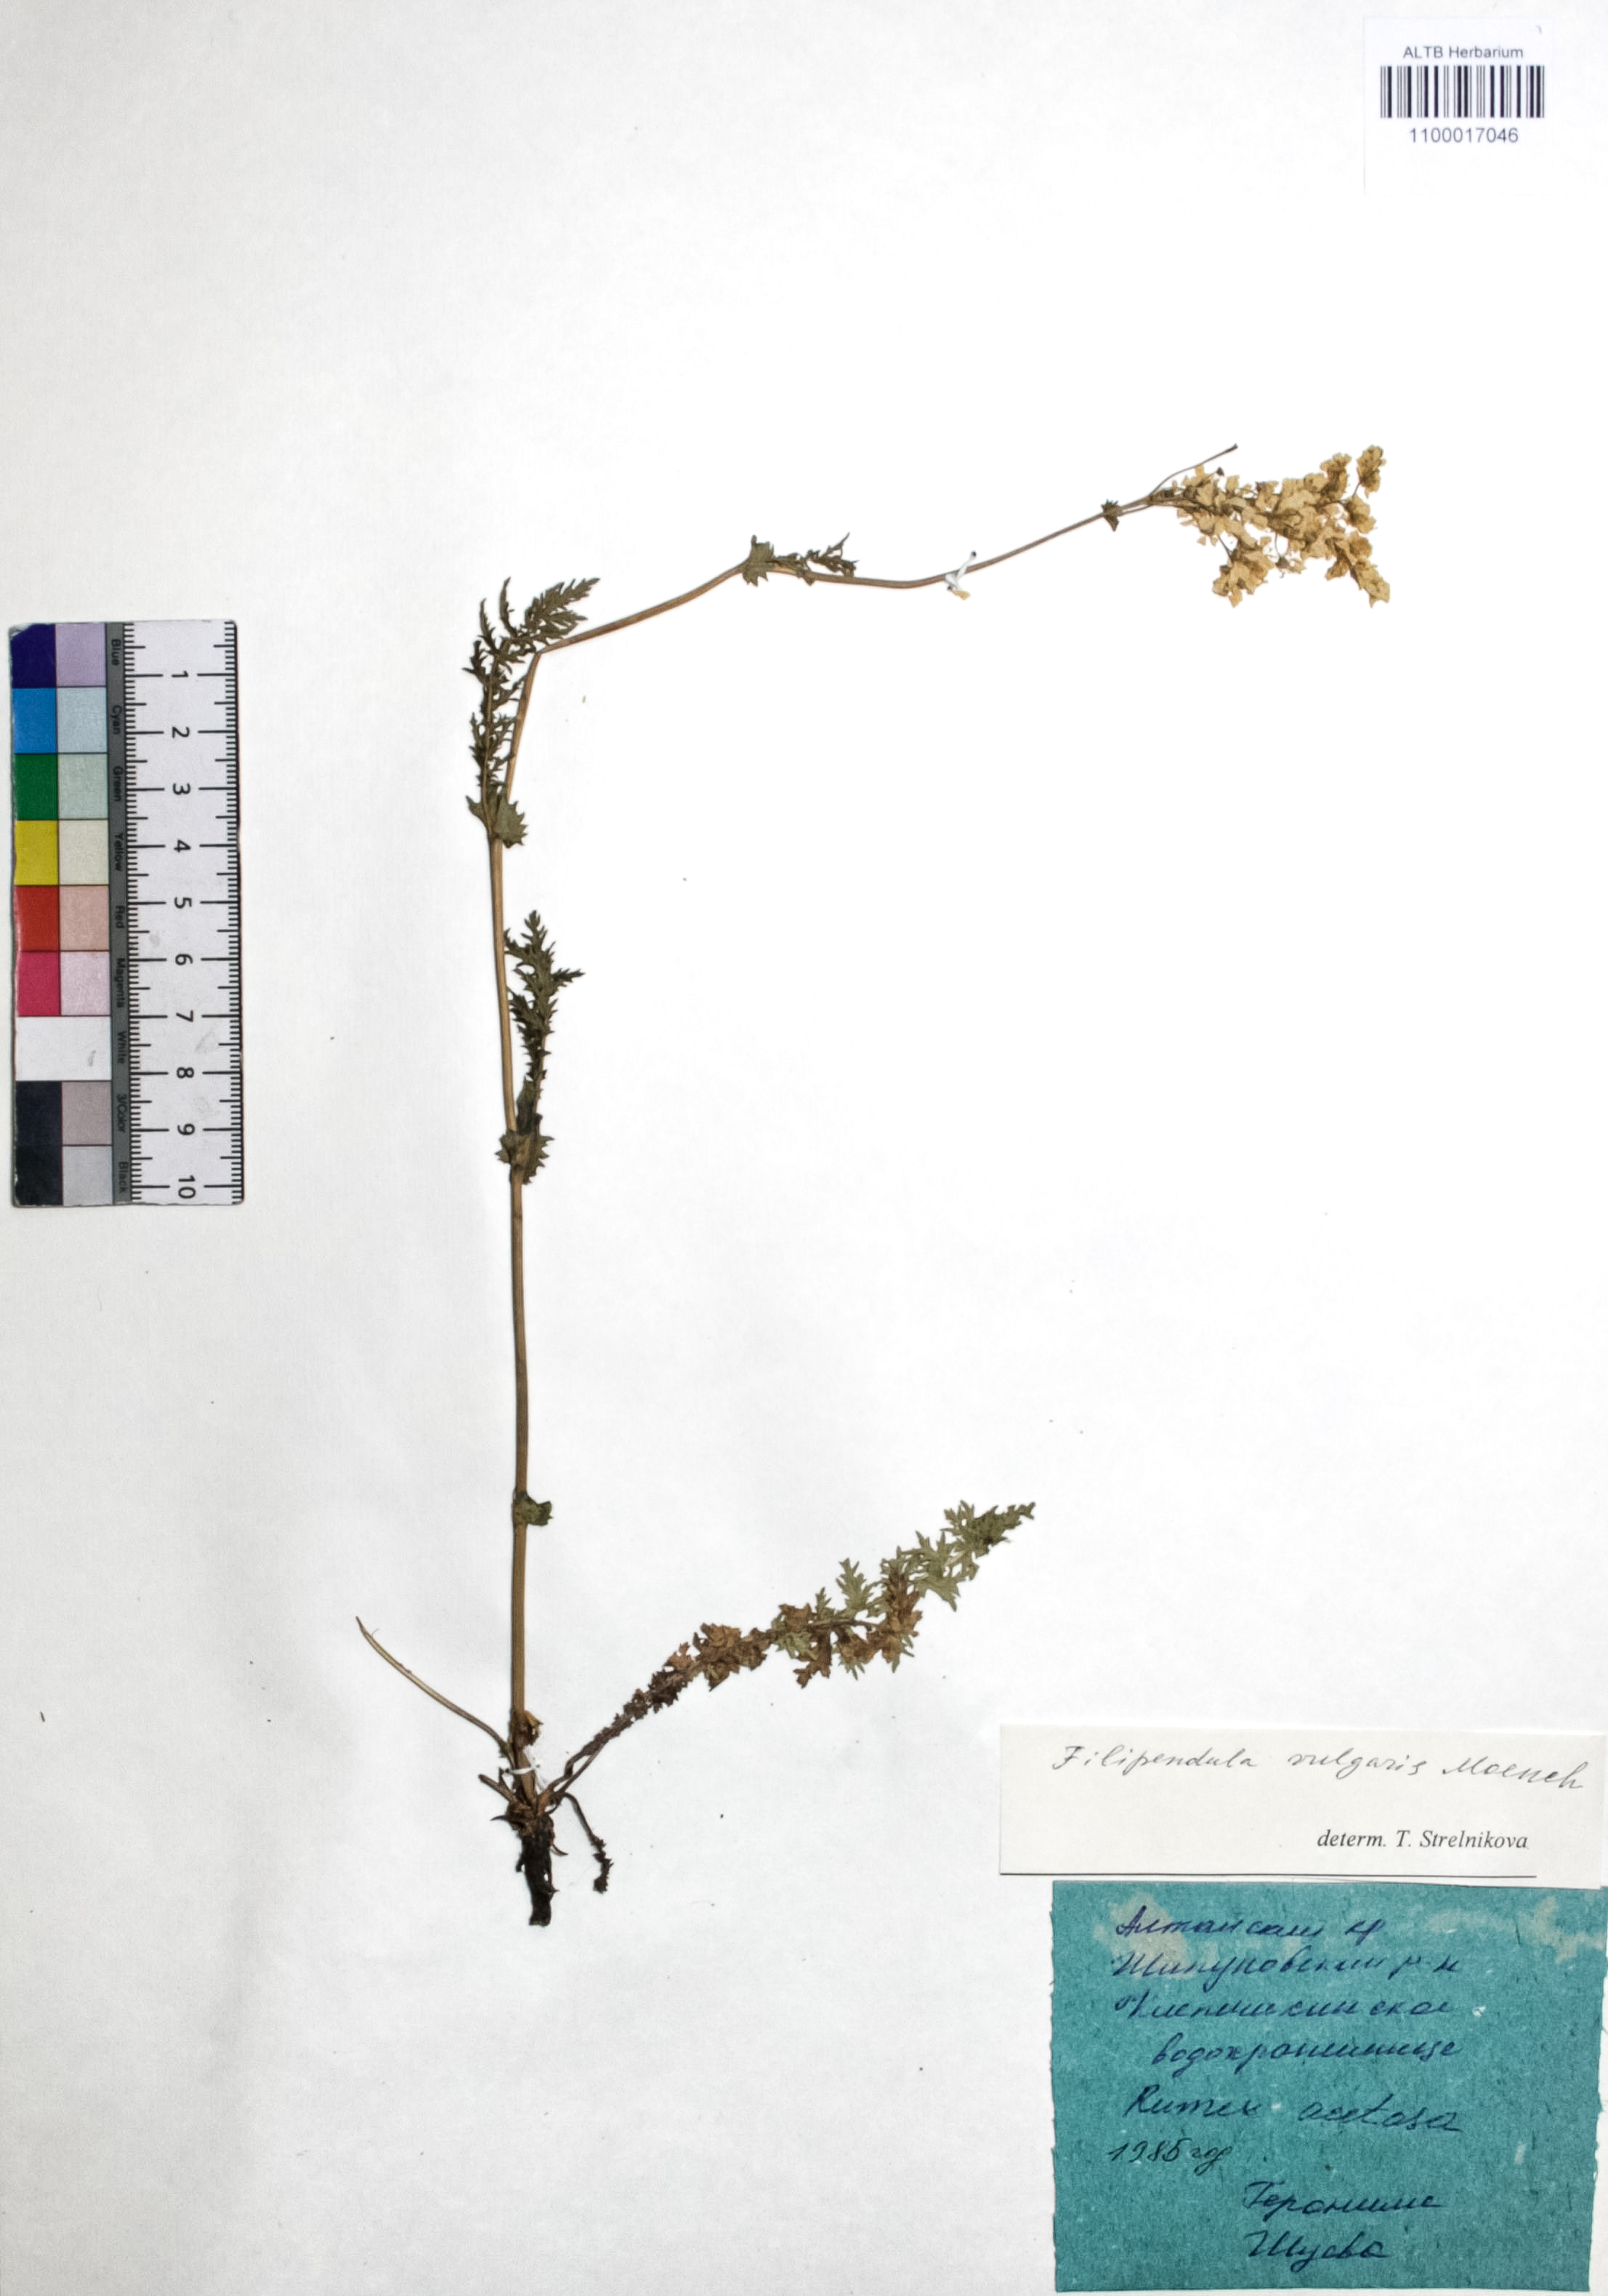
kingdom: Plantae
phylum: Tracheophyta
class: Magnoliopsida
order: Rosales
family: Rosaceae
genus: Filipendula
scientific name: Filipendula vulgaris
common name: Dropwort
